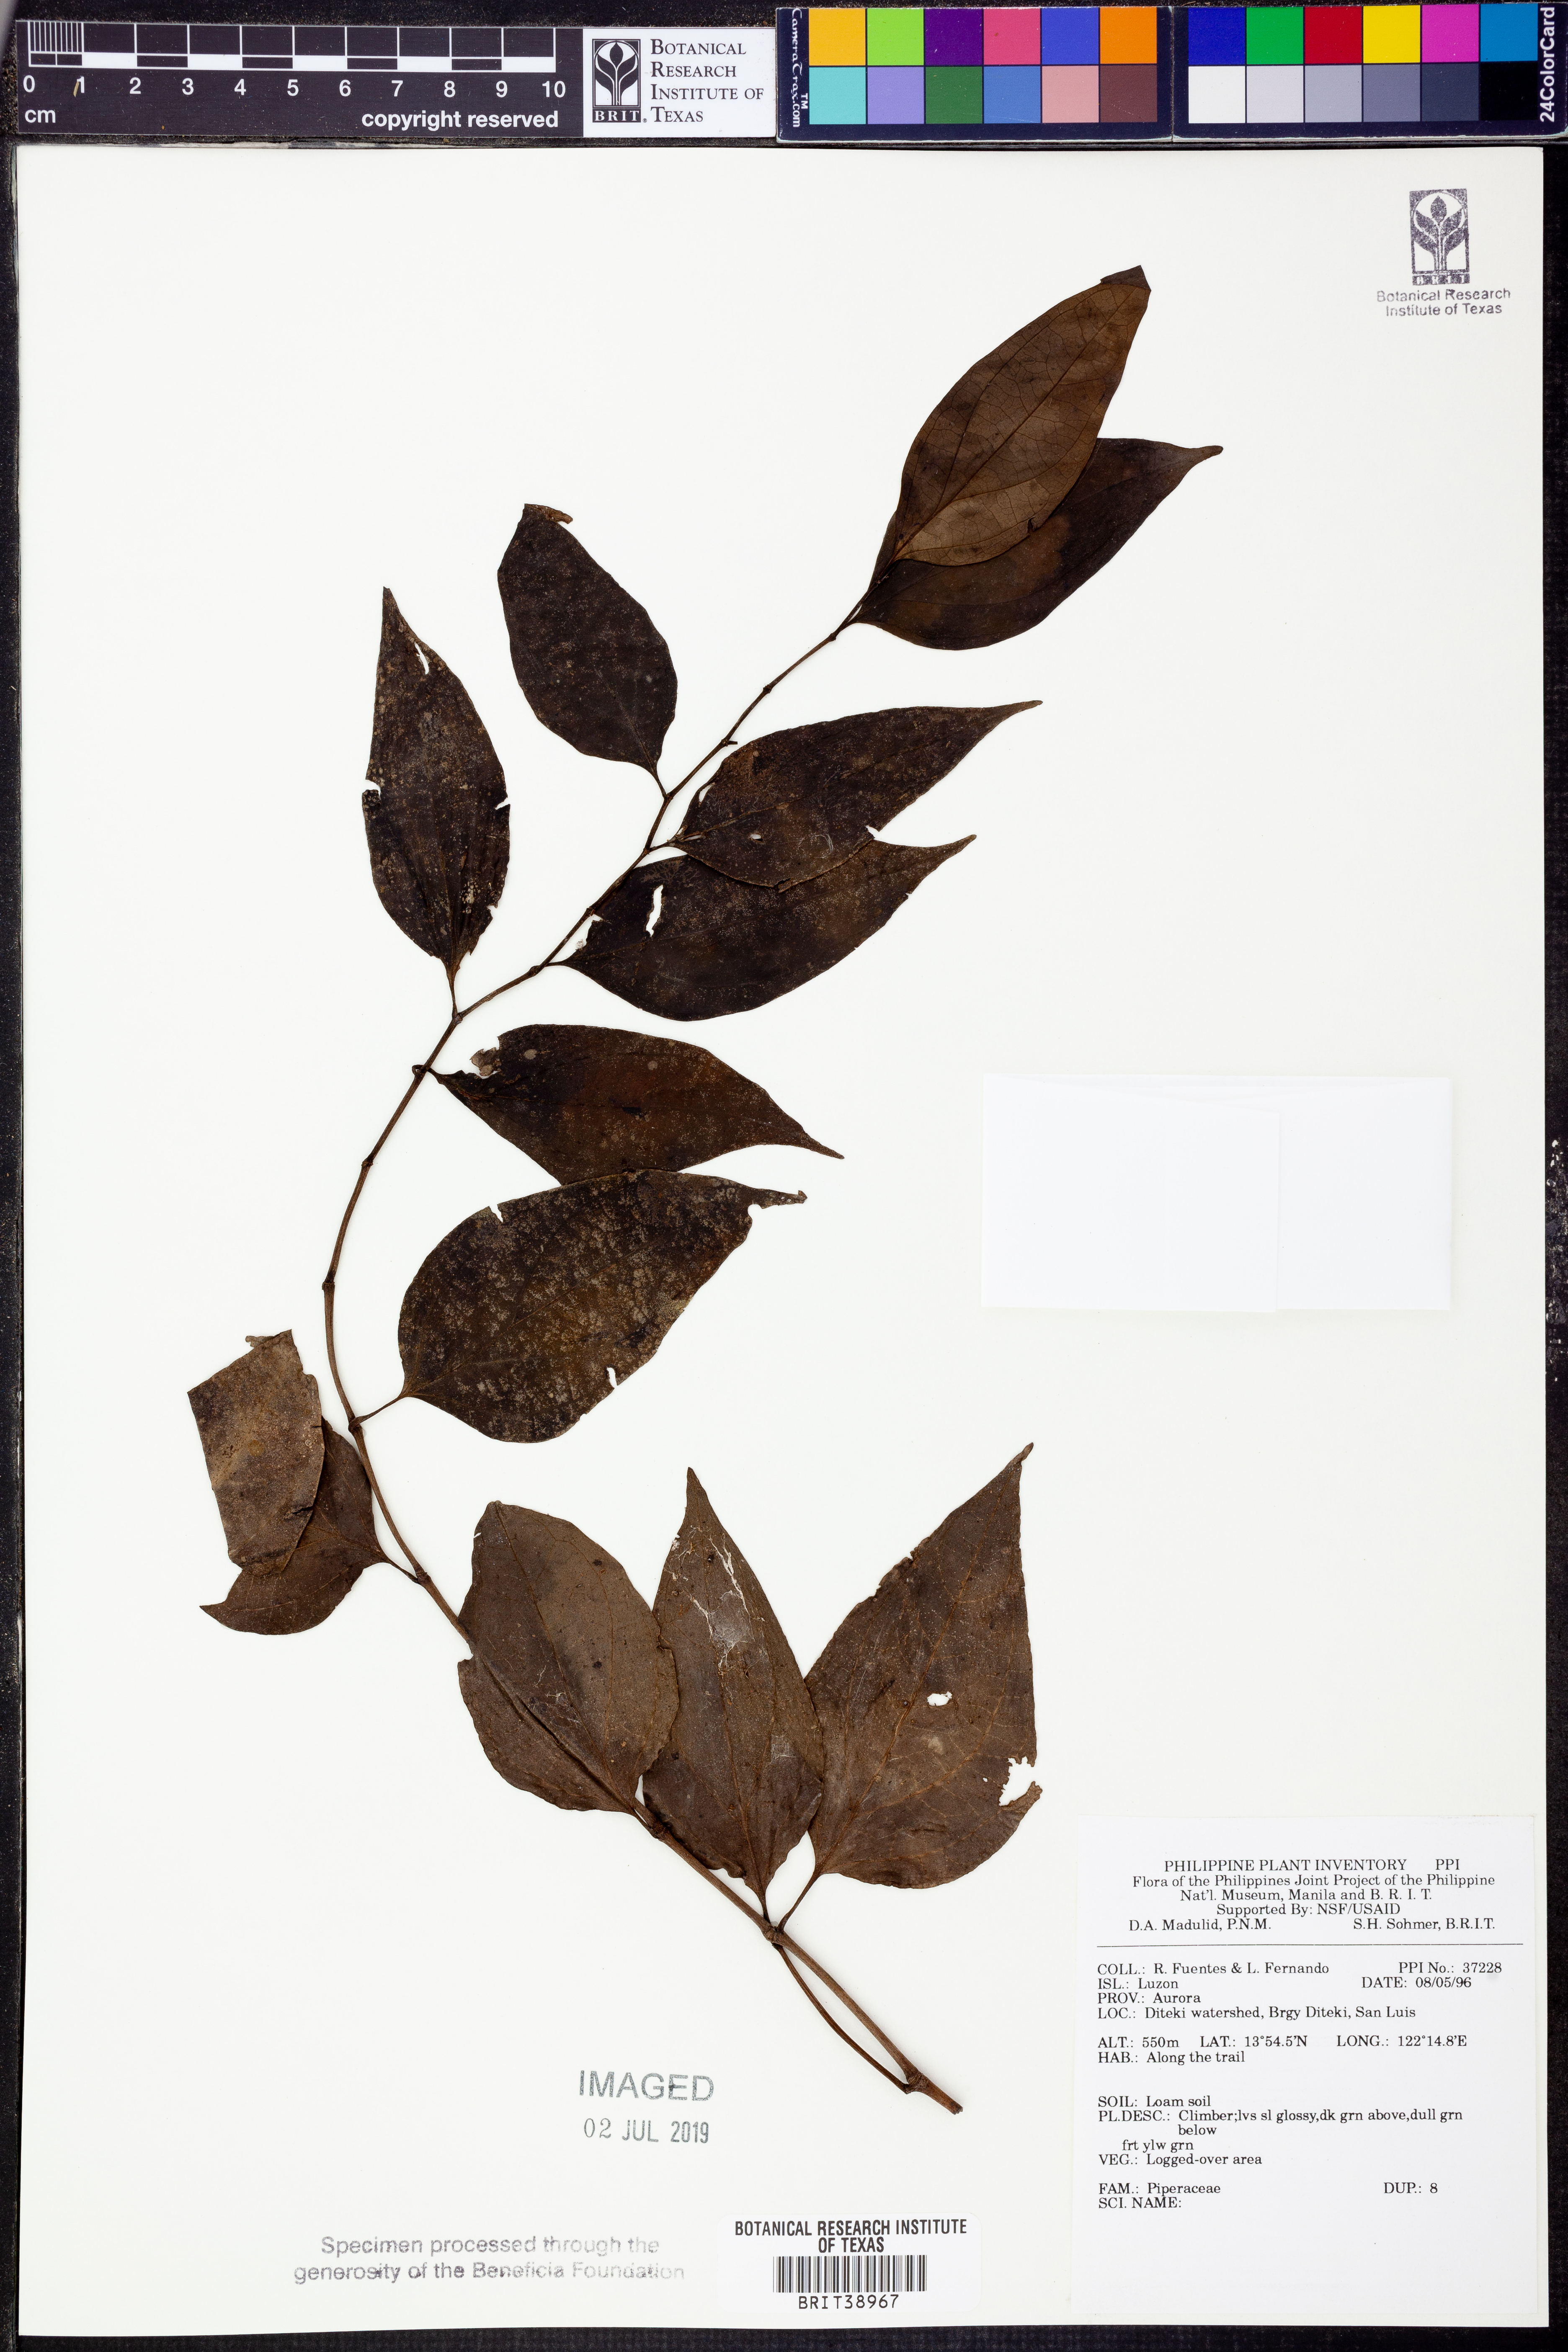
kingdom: Plantae
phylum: Tracheophyta
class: Magnoliopsida
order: Piperales
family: Piperaceae
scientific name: Piperaceae
